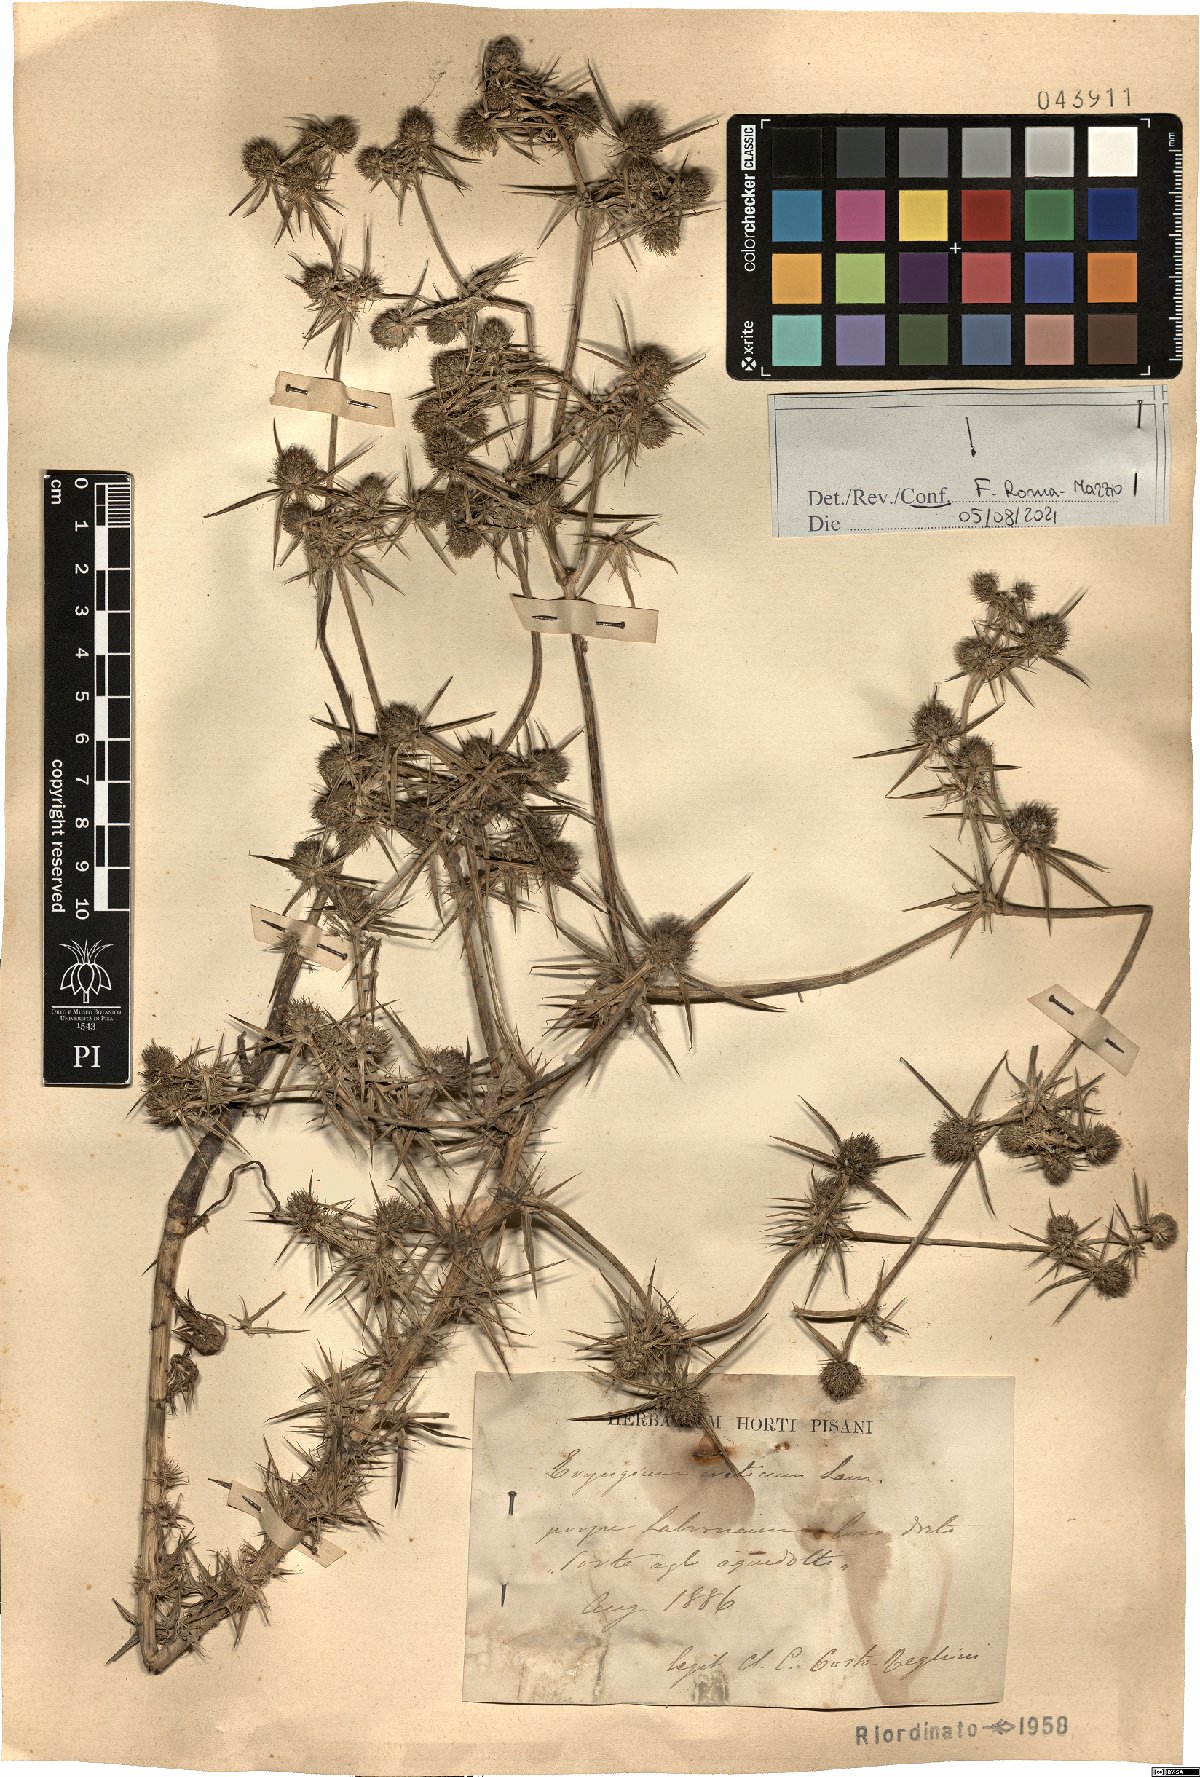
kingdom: Plantae
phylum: Tracheophyta
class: Magnoliopsida
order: Apiales
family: Apiaceae
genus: Eryngium
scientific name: Eryngium creticum
